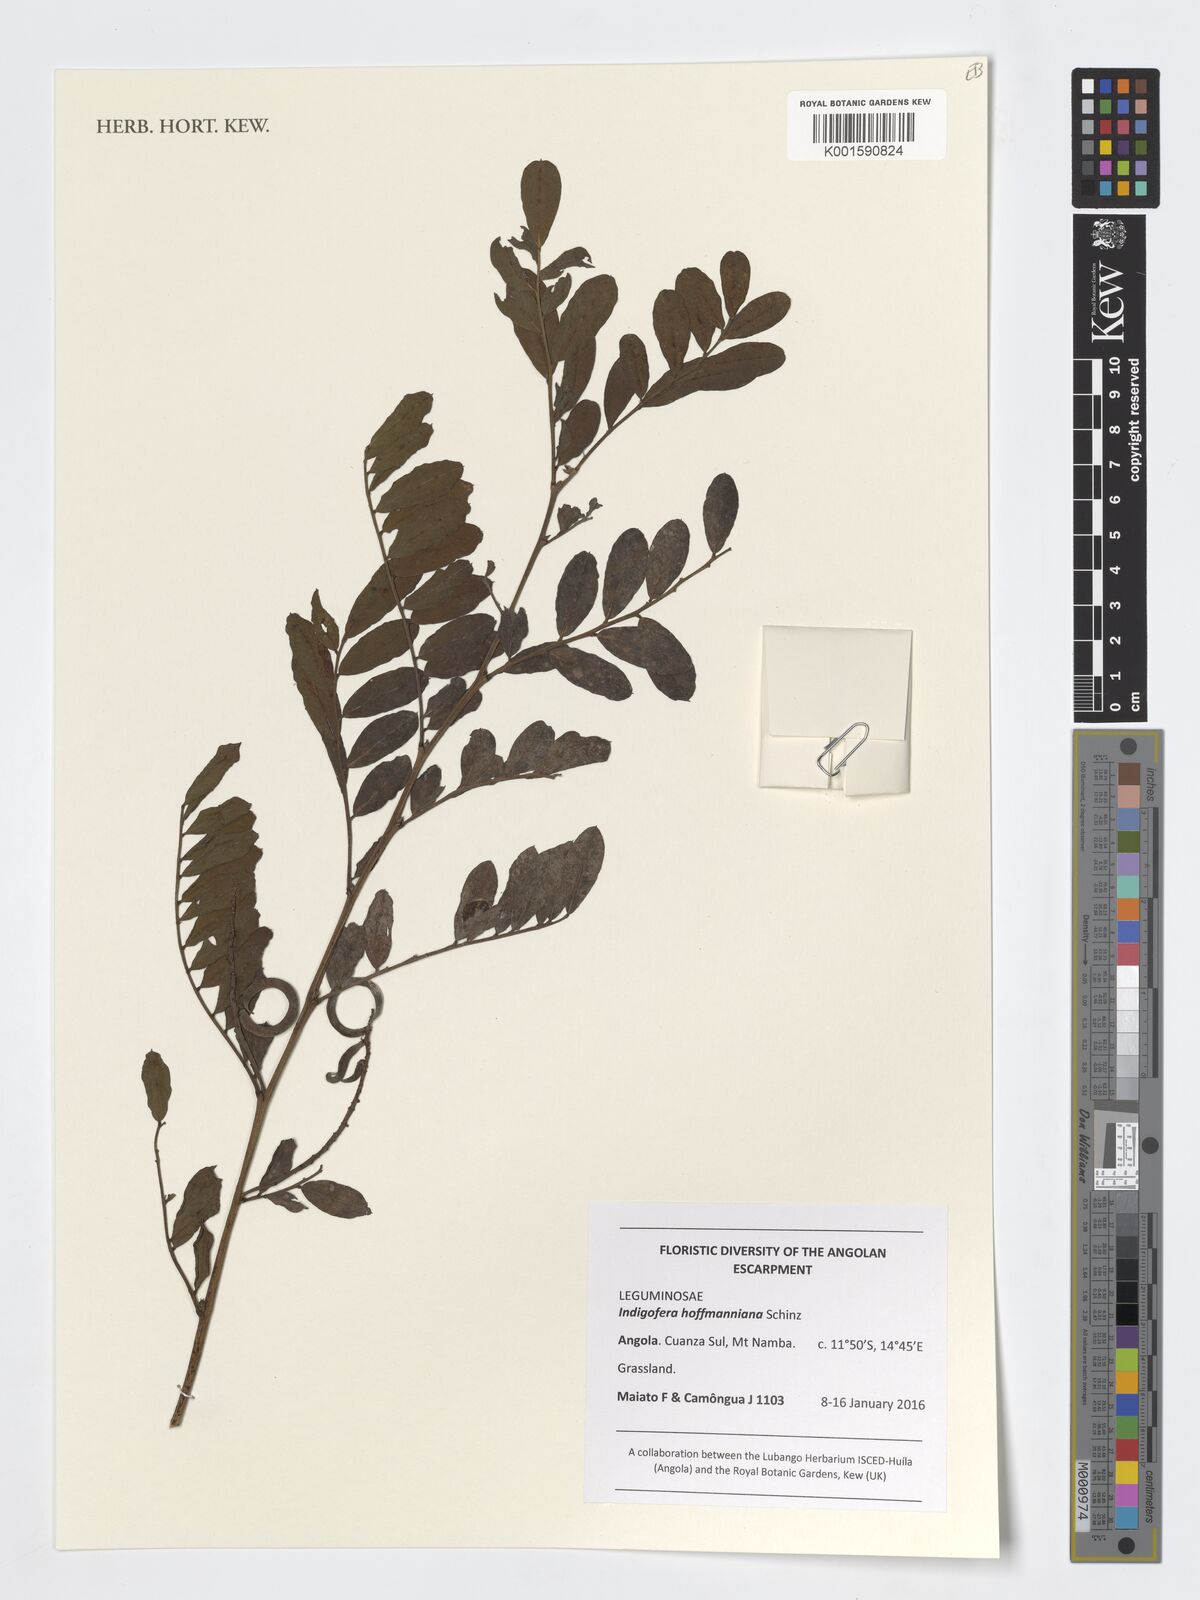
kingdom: Plantae
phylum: Tracheophyta
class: Magnoliopsida
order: Fabales
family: Fabaceae
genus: Indigofera
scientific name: Indigofera hofmanniana
